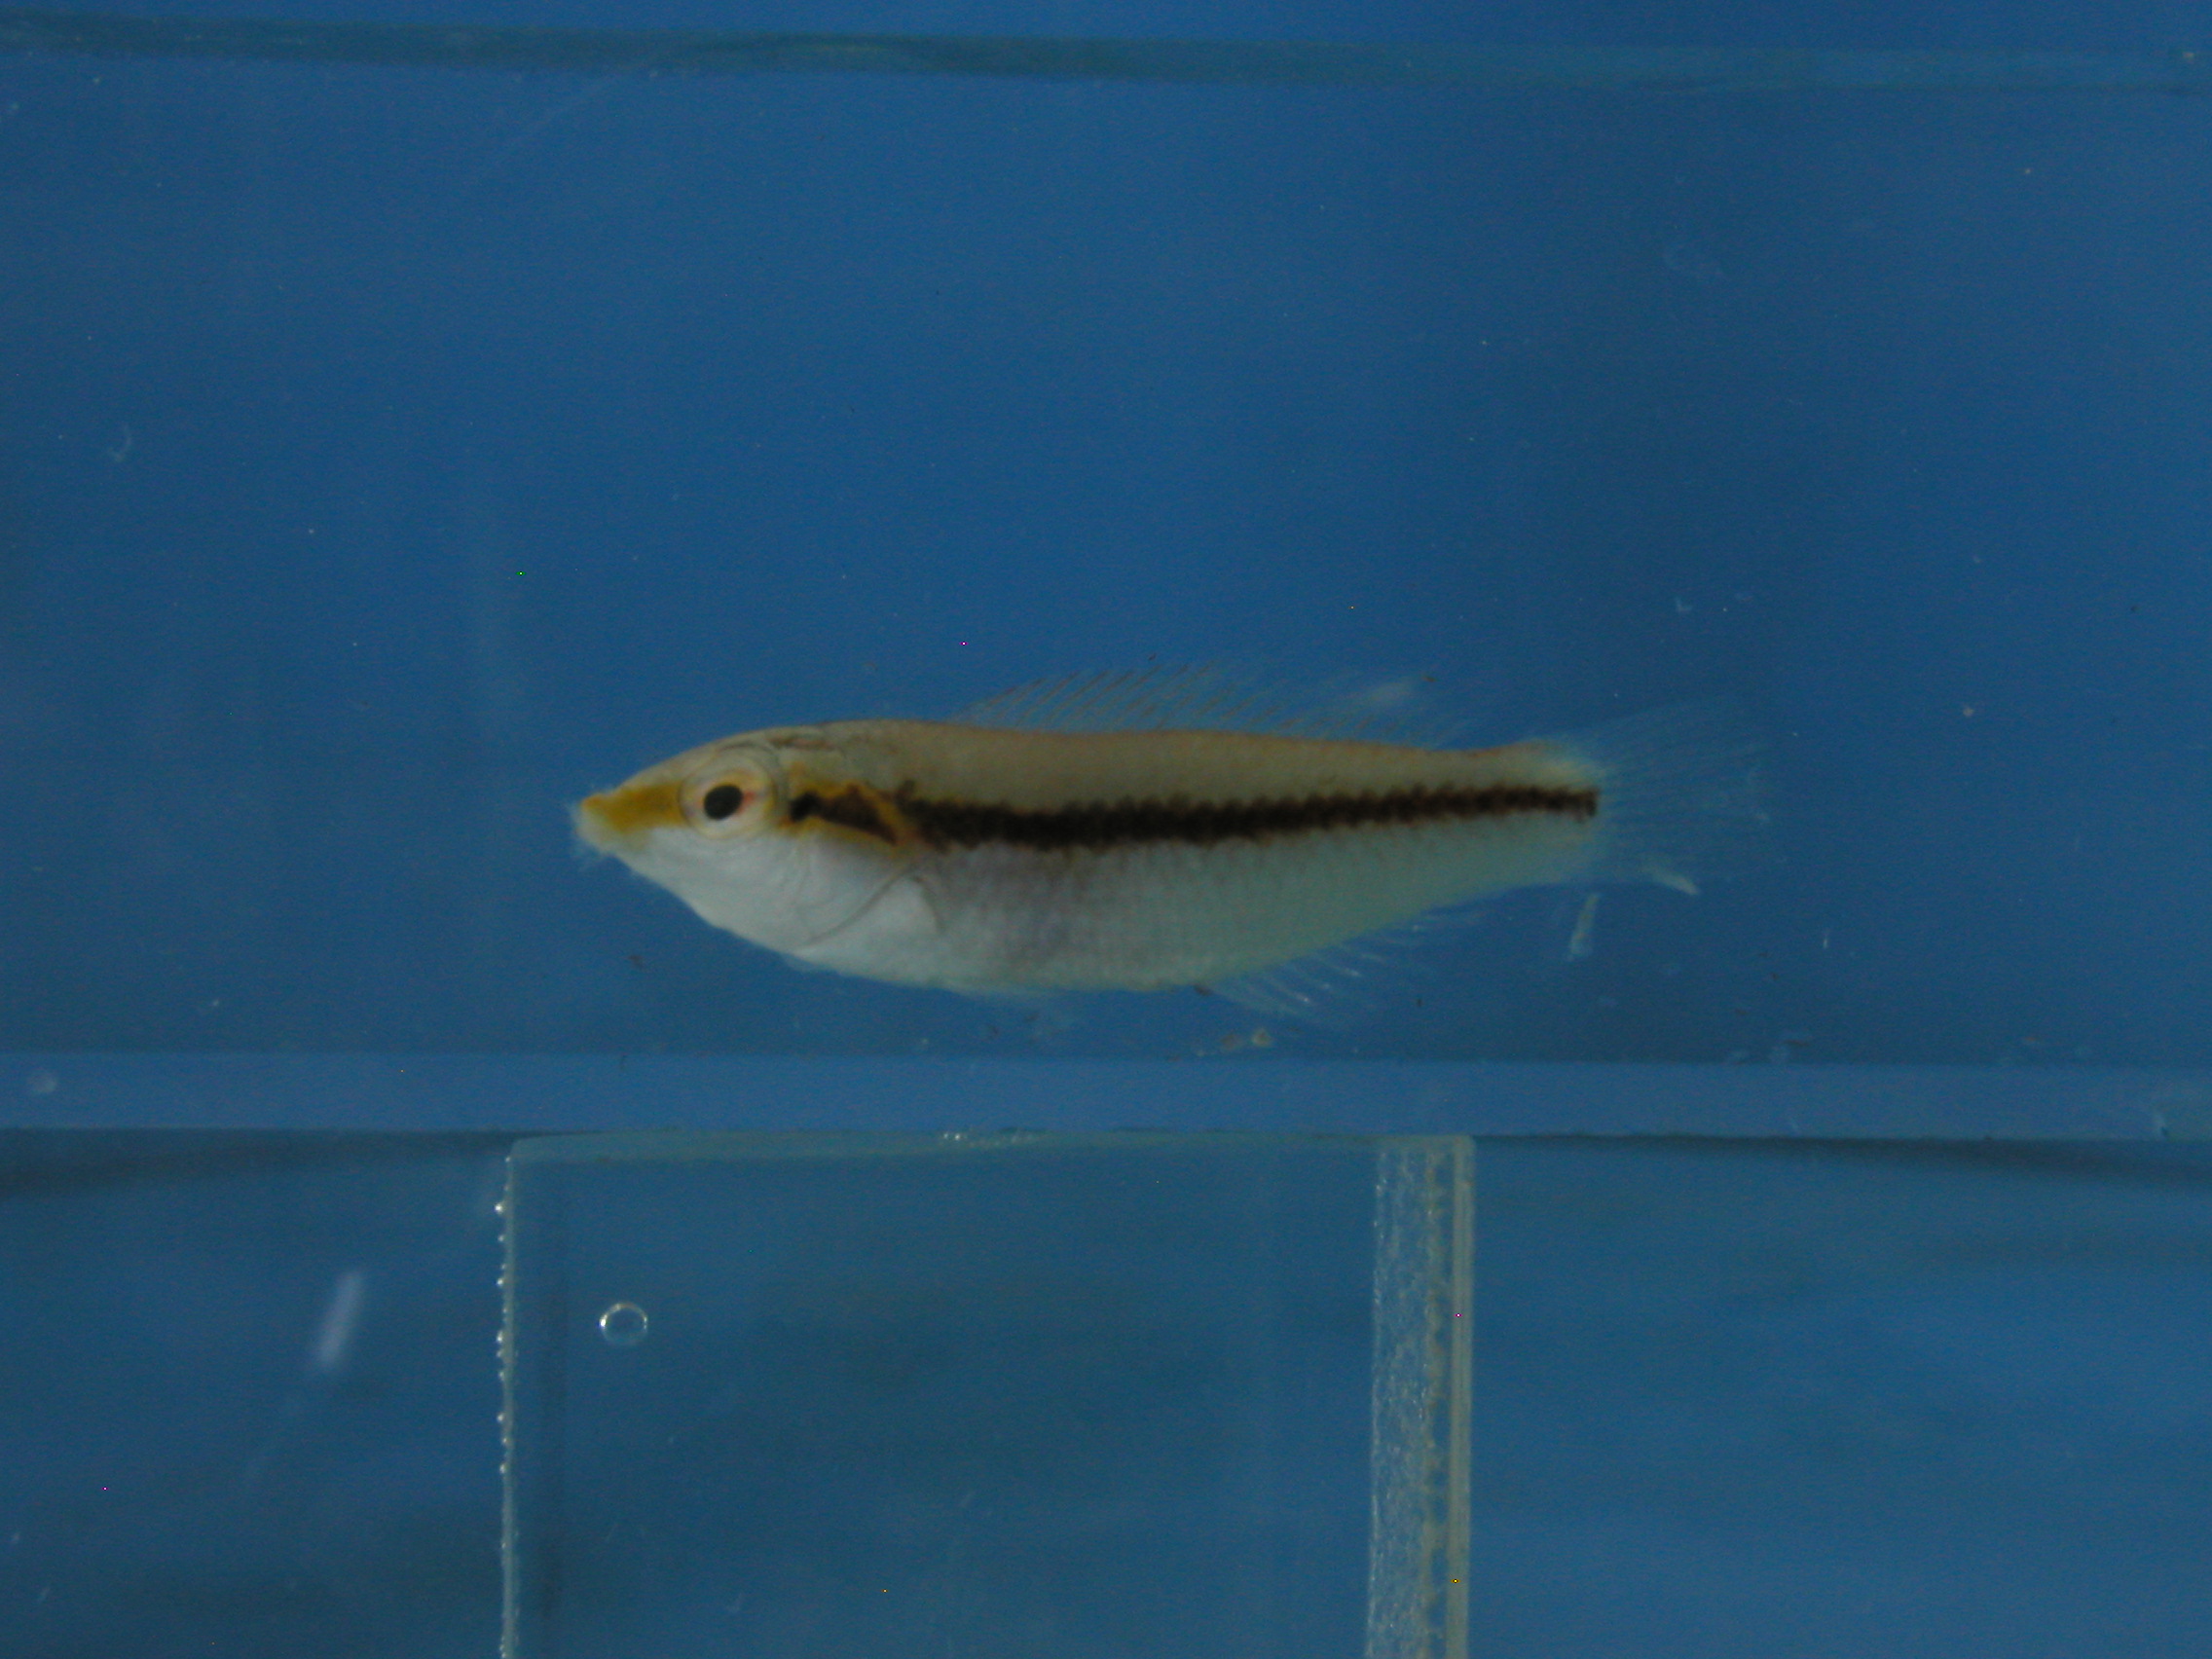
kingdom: Animalia
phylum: Chordata
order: Perciformes
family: Labridae
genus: Halichoeres
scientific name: Halichoeres hortulanus
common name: Checkerboard wrasse
